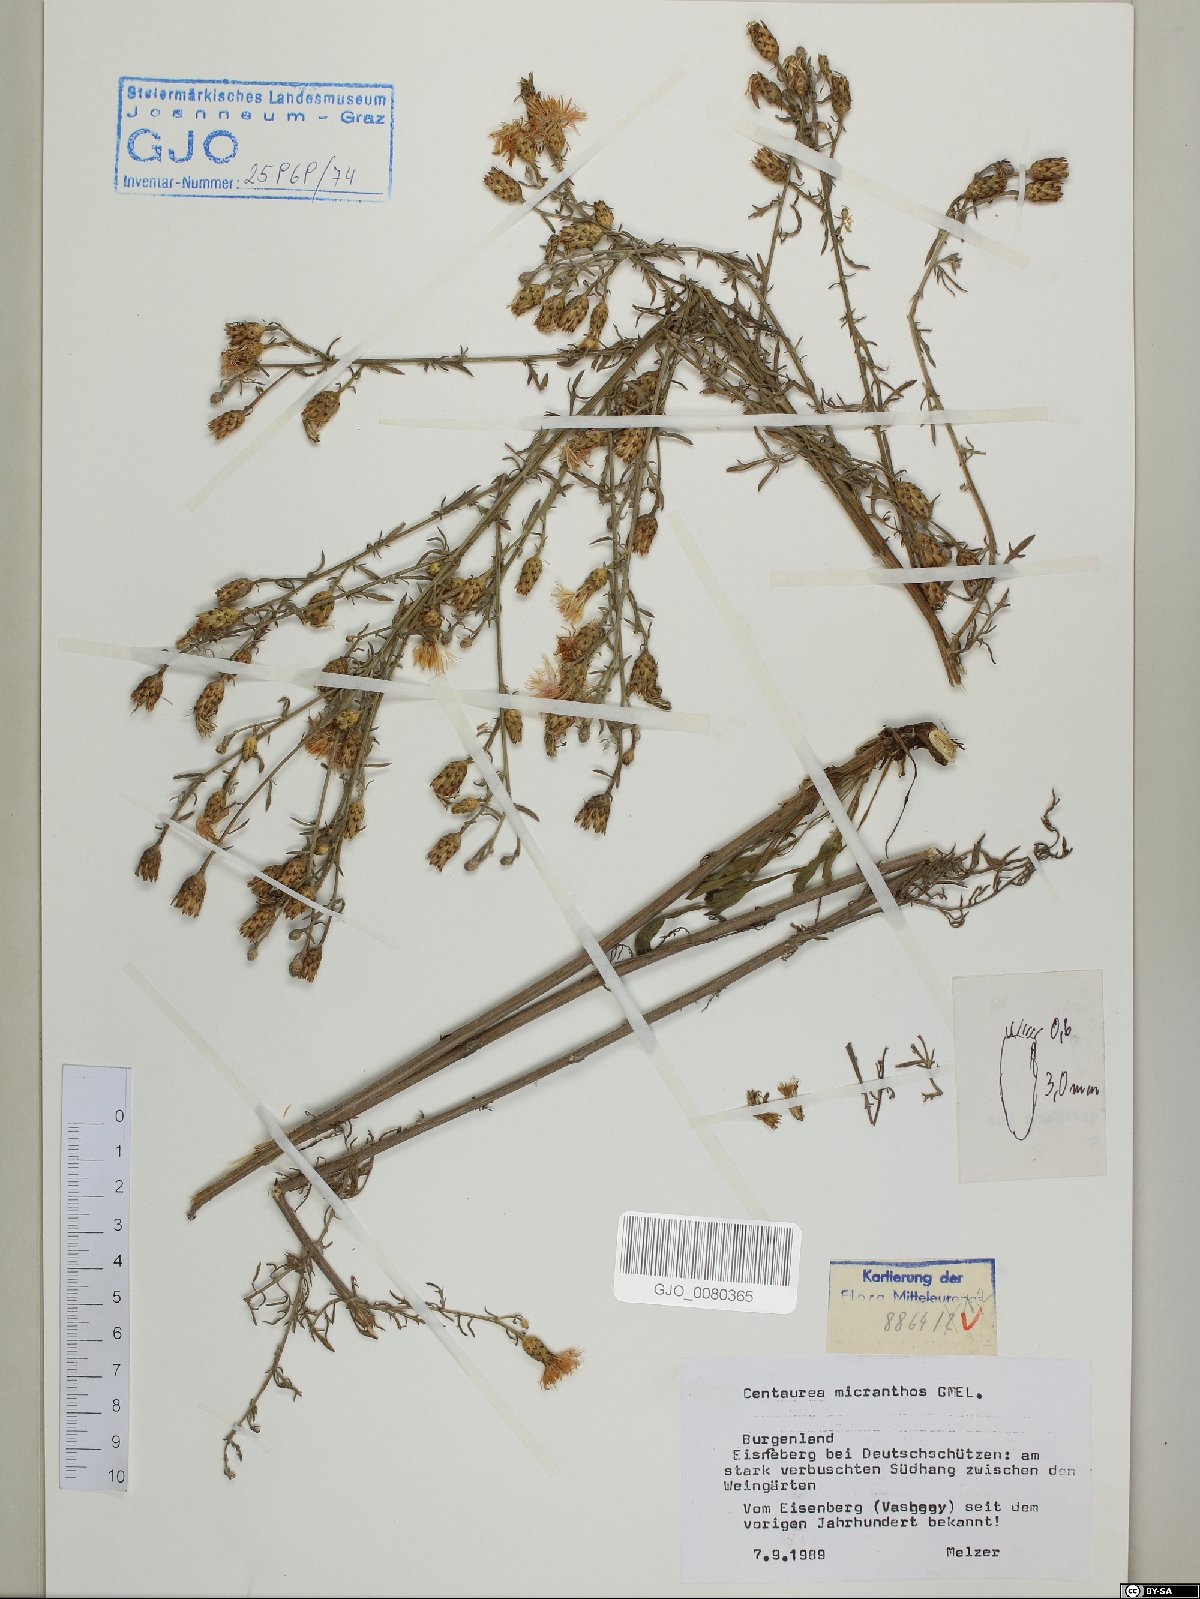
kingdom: Plantae
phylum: Tracheophyta
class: Magnoliopsida
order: Asterales
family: Asteraceae
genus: Centaurea
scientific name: Centaurea micranthos
